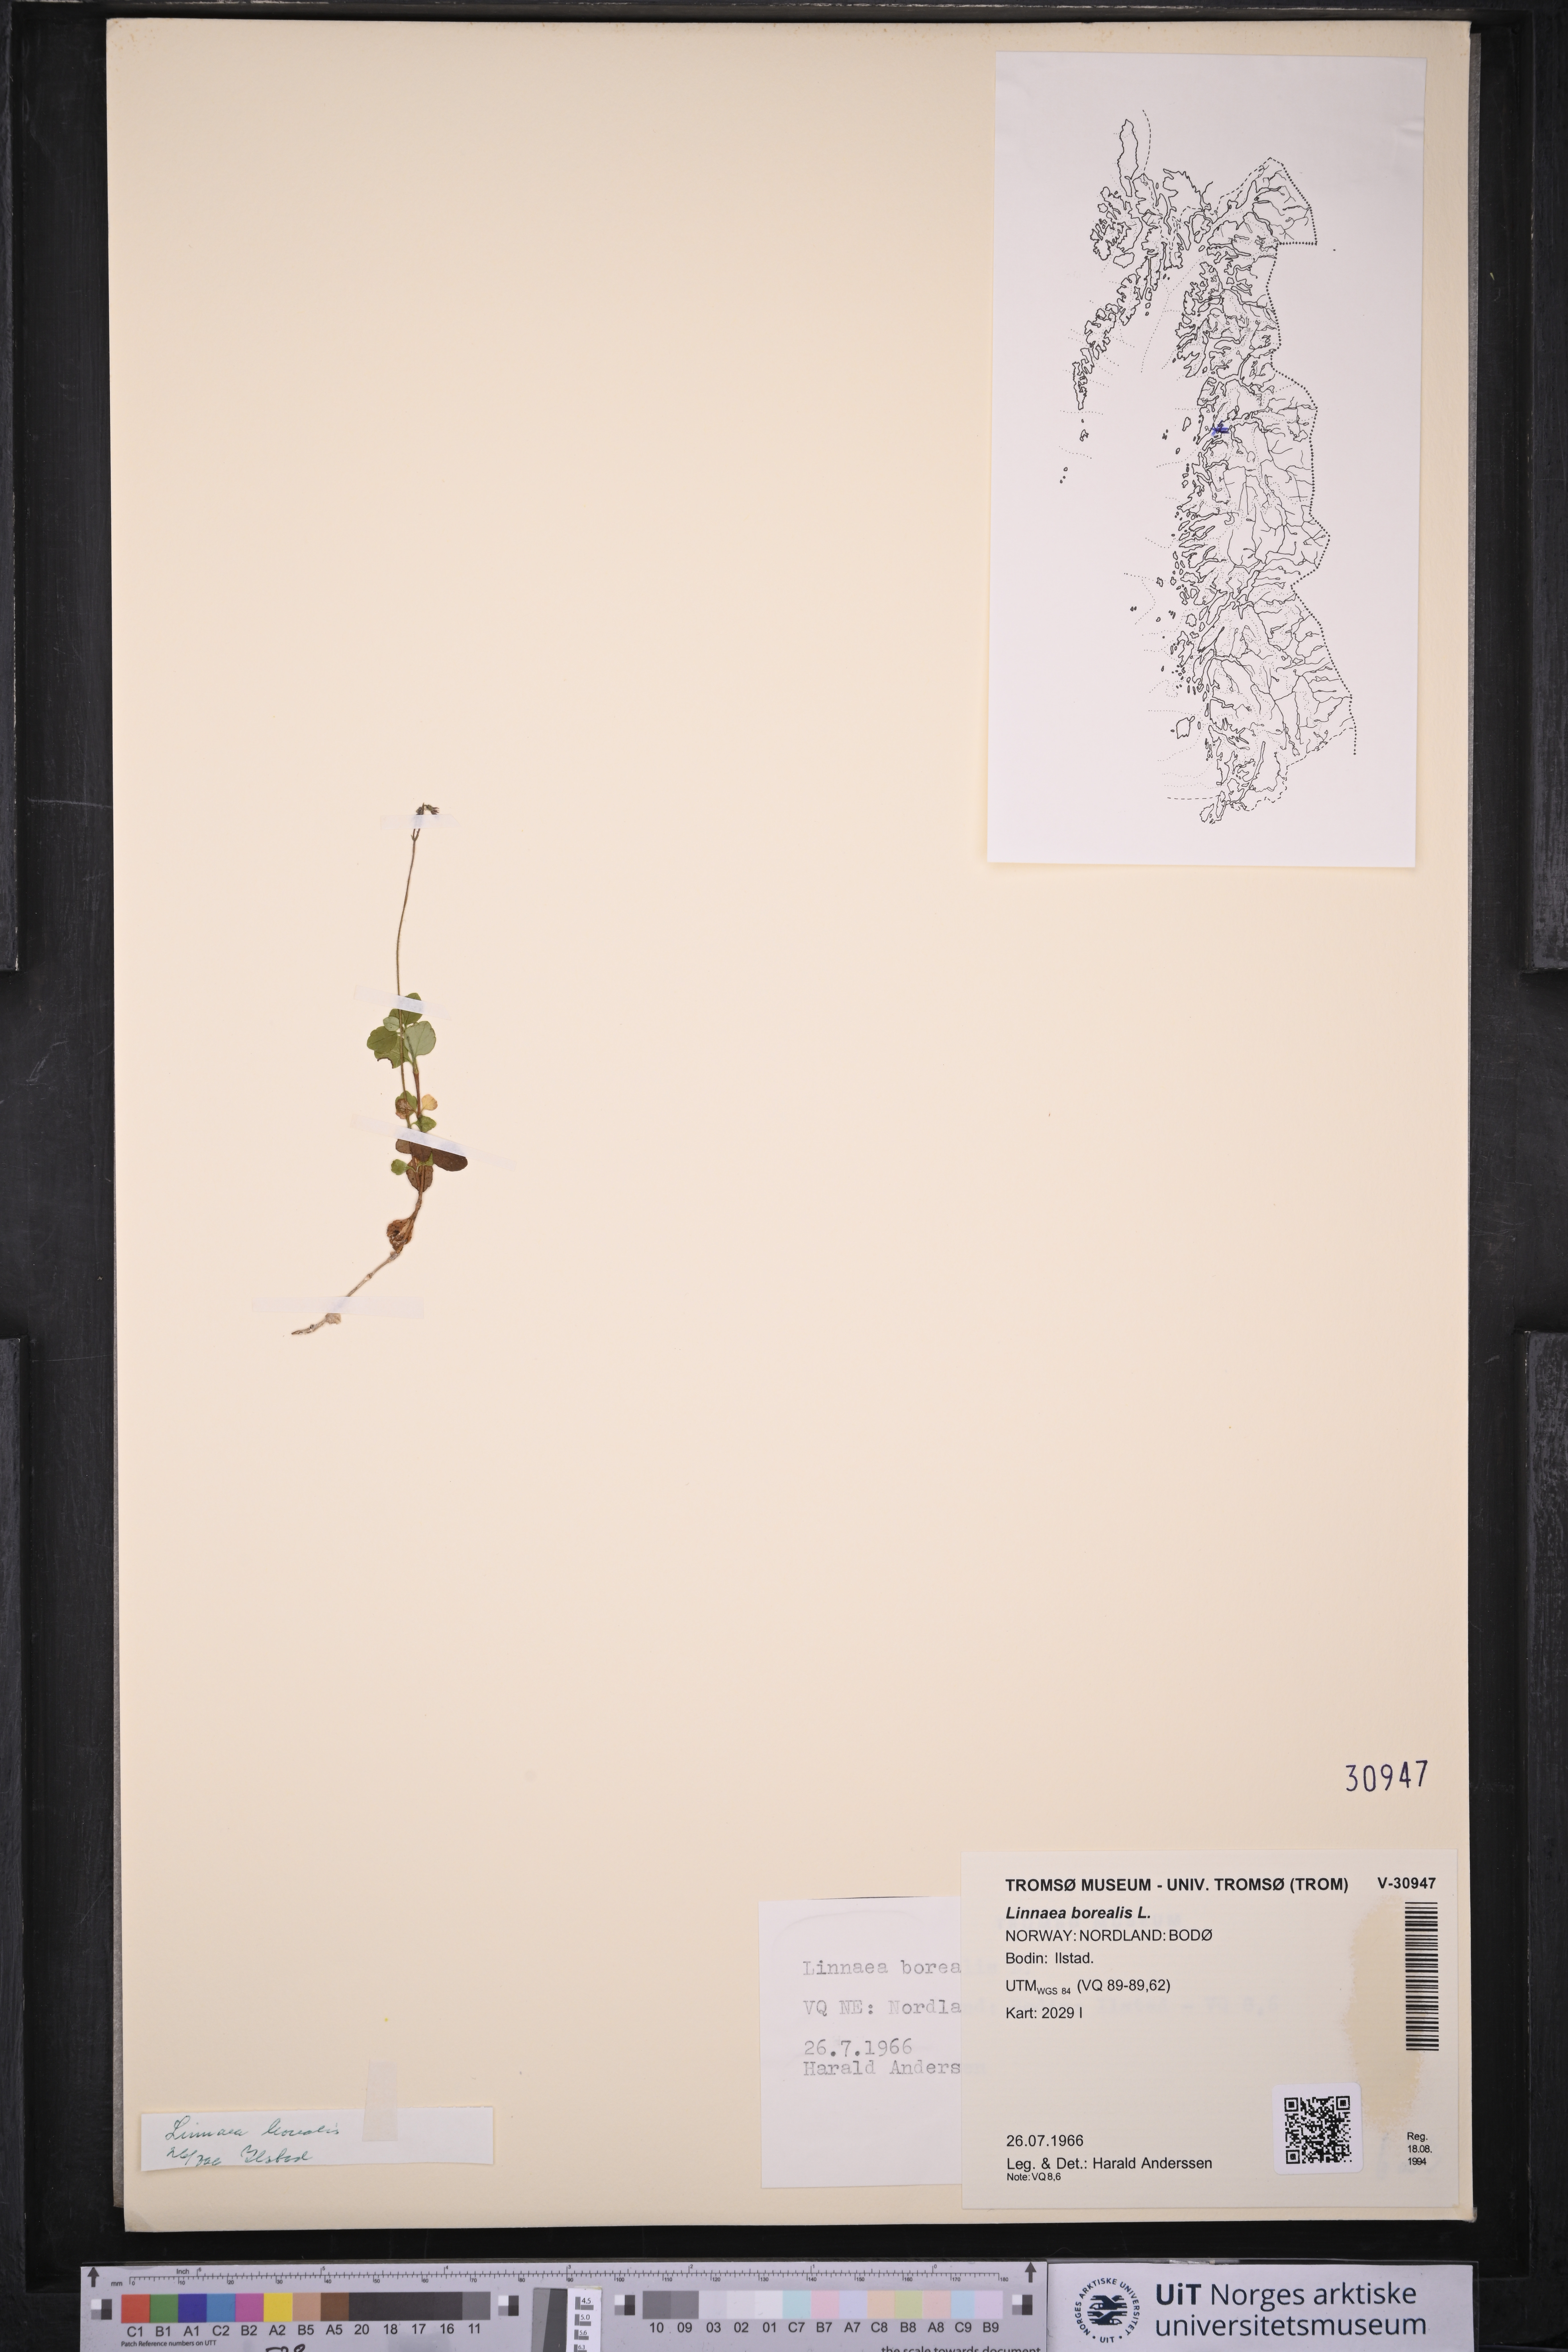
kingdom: Plantae
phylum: Tracheophyta
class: Magnoliopsida
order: Dipsacales
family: Caprifoliaceae
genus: Linnaea
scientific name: Linnaea borealis
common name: Twinflower
